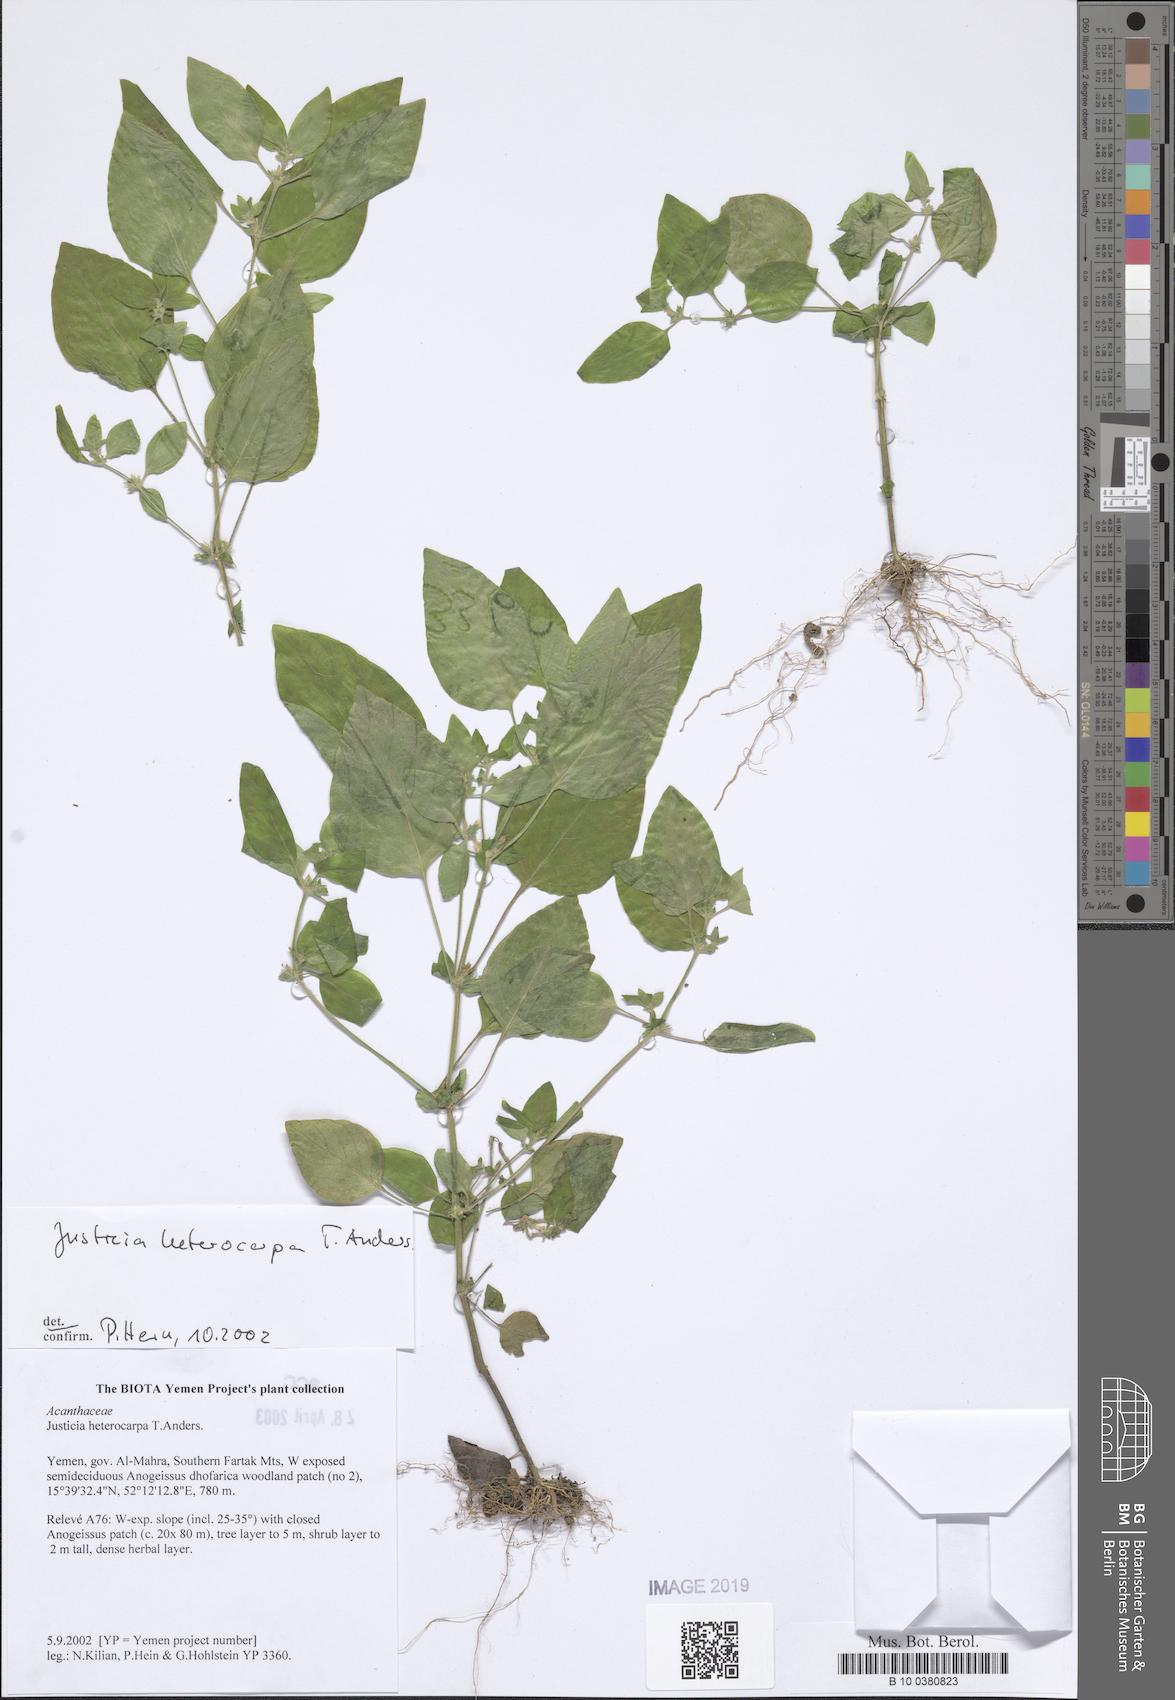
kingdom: Plantae
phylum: Tracheophyta
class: Magnoliopsida
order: Lamiales
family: Acanthaceae
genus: Justicia
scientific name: Justicia heterocarpa
